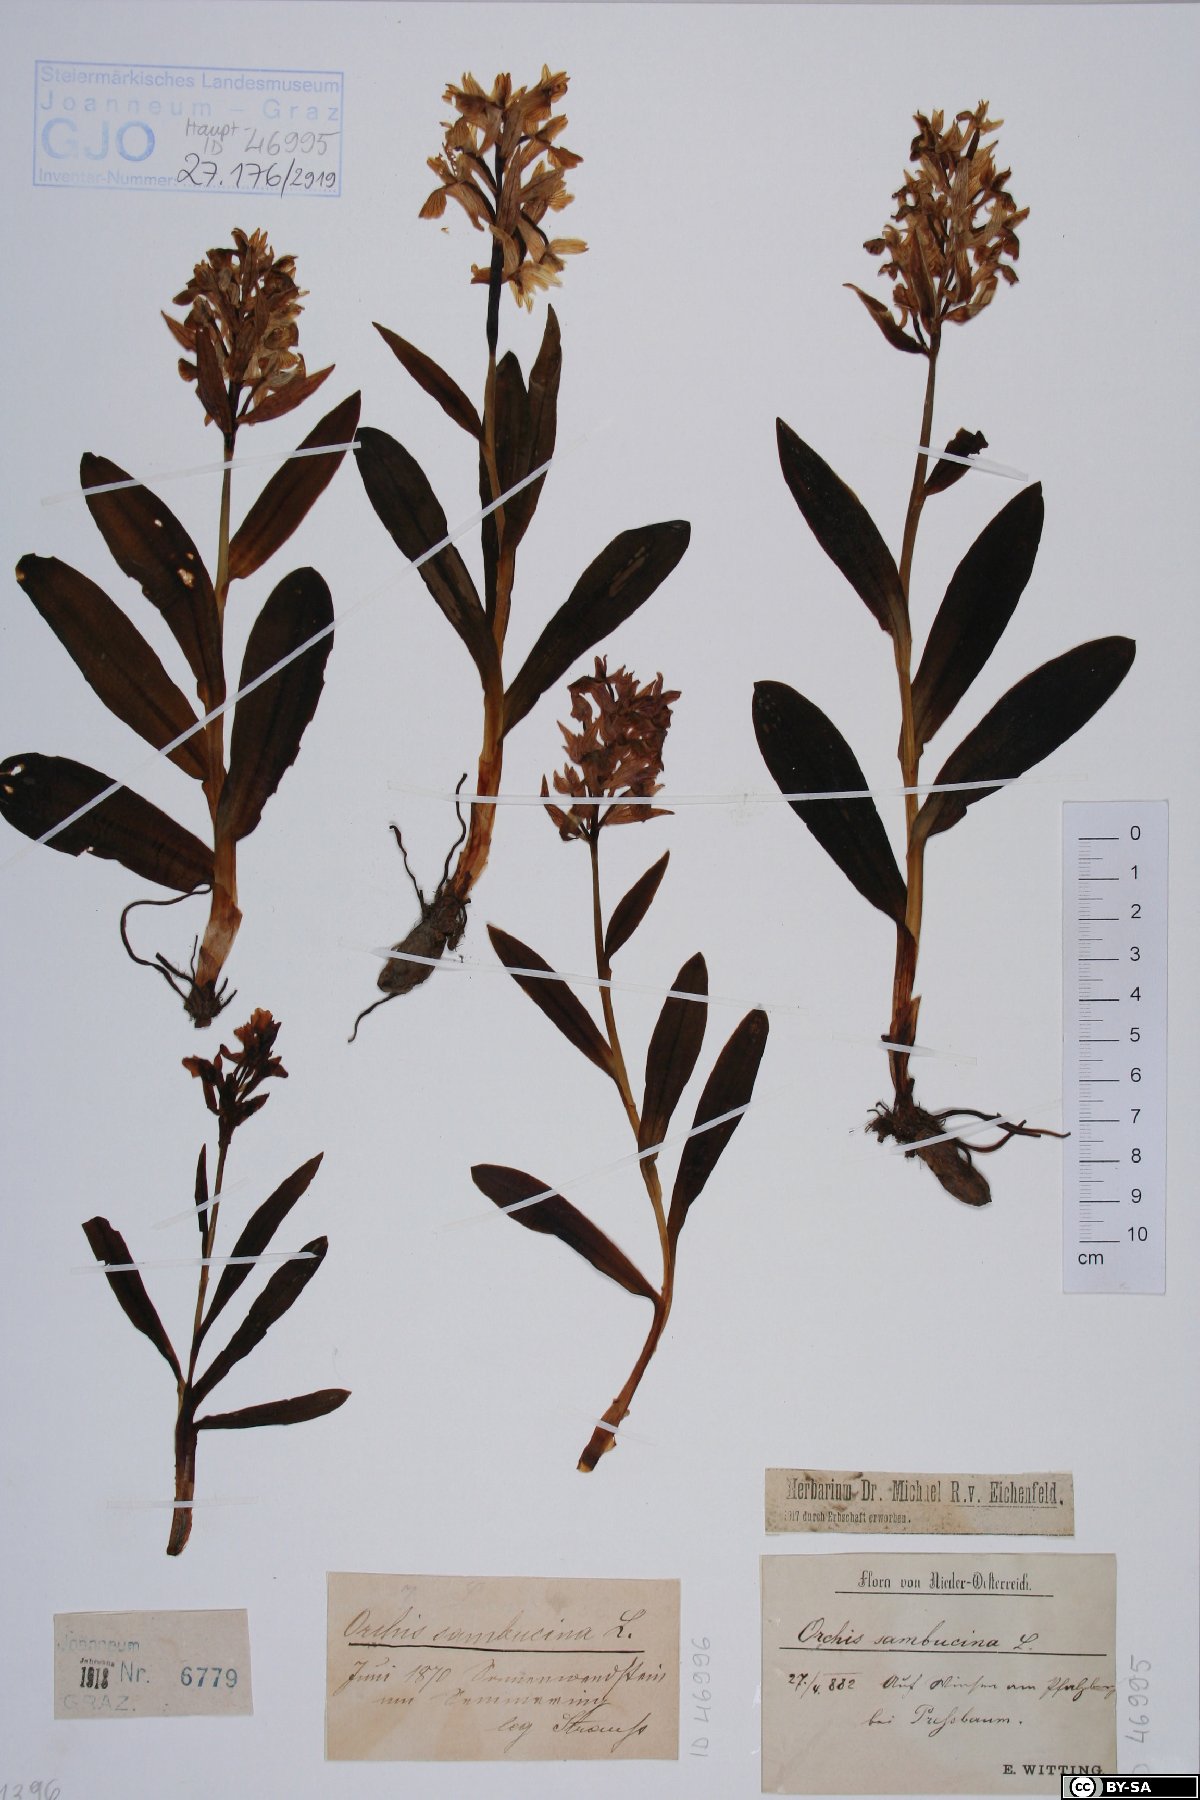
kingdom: Plantae
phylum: Tracheophyta
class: Liliopsida
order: Asparagales
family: Orchidaceae
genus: Dactylorhiza
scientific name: Dactylorhiza sambucina
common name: Elder-flowered orchid
